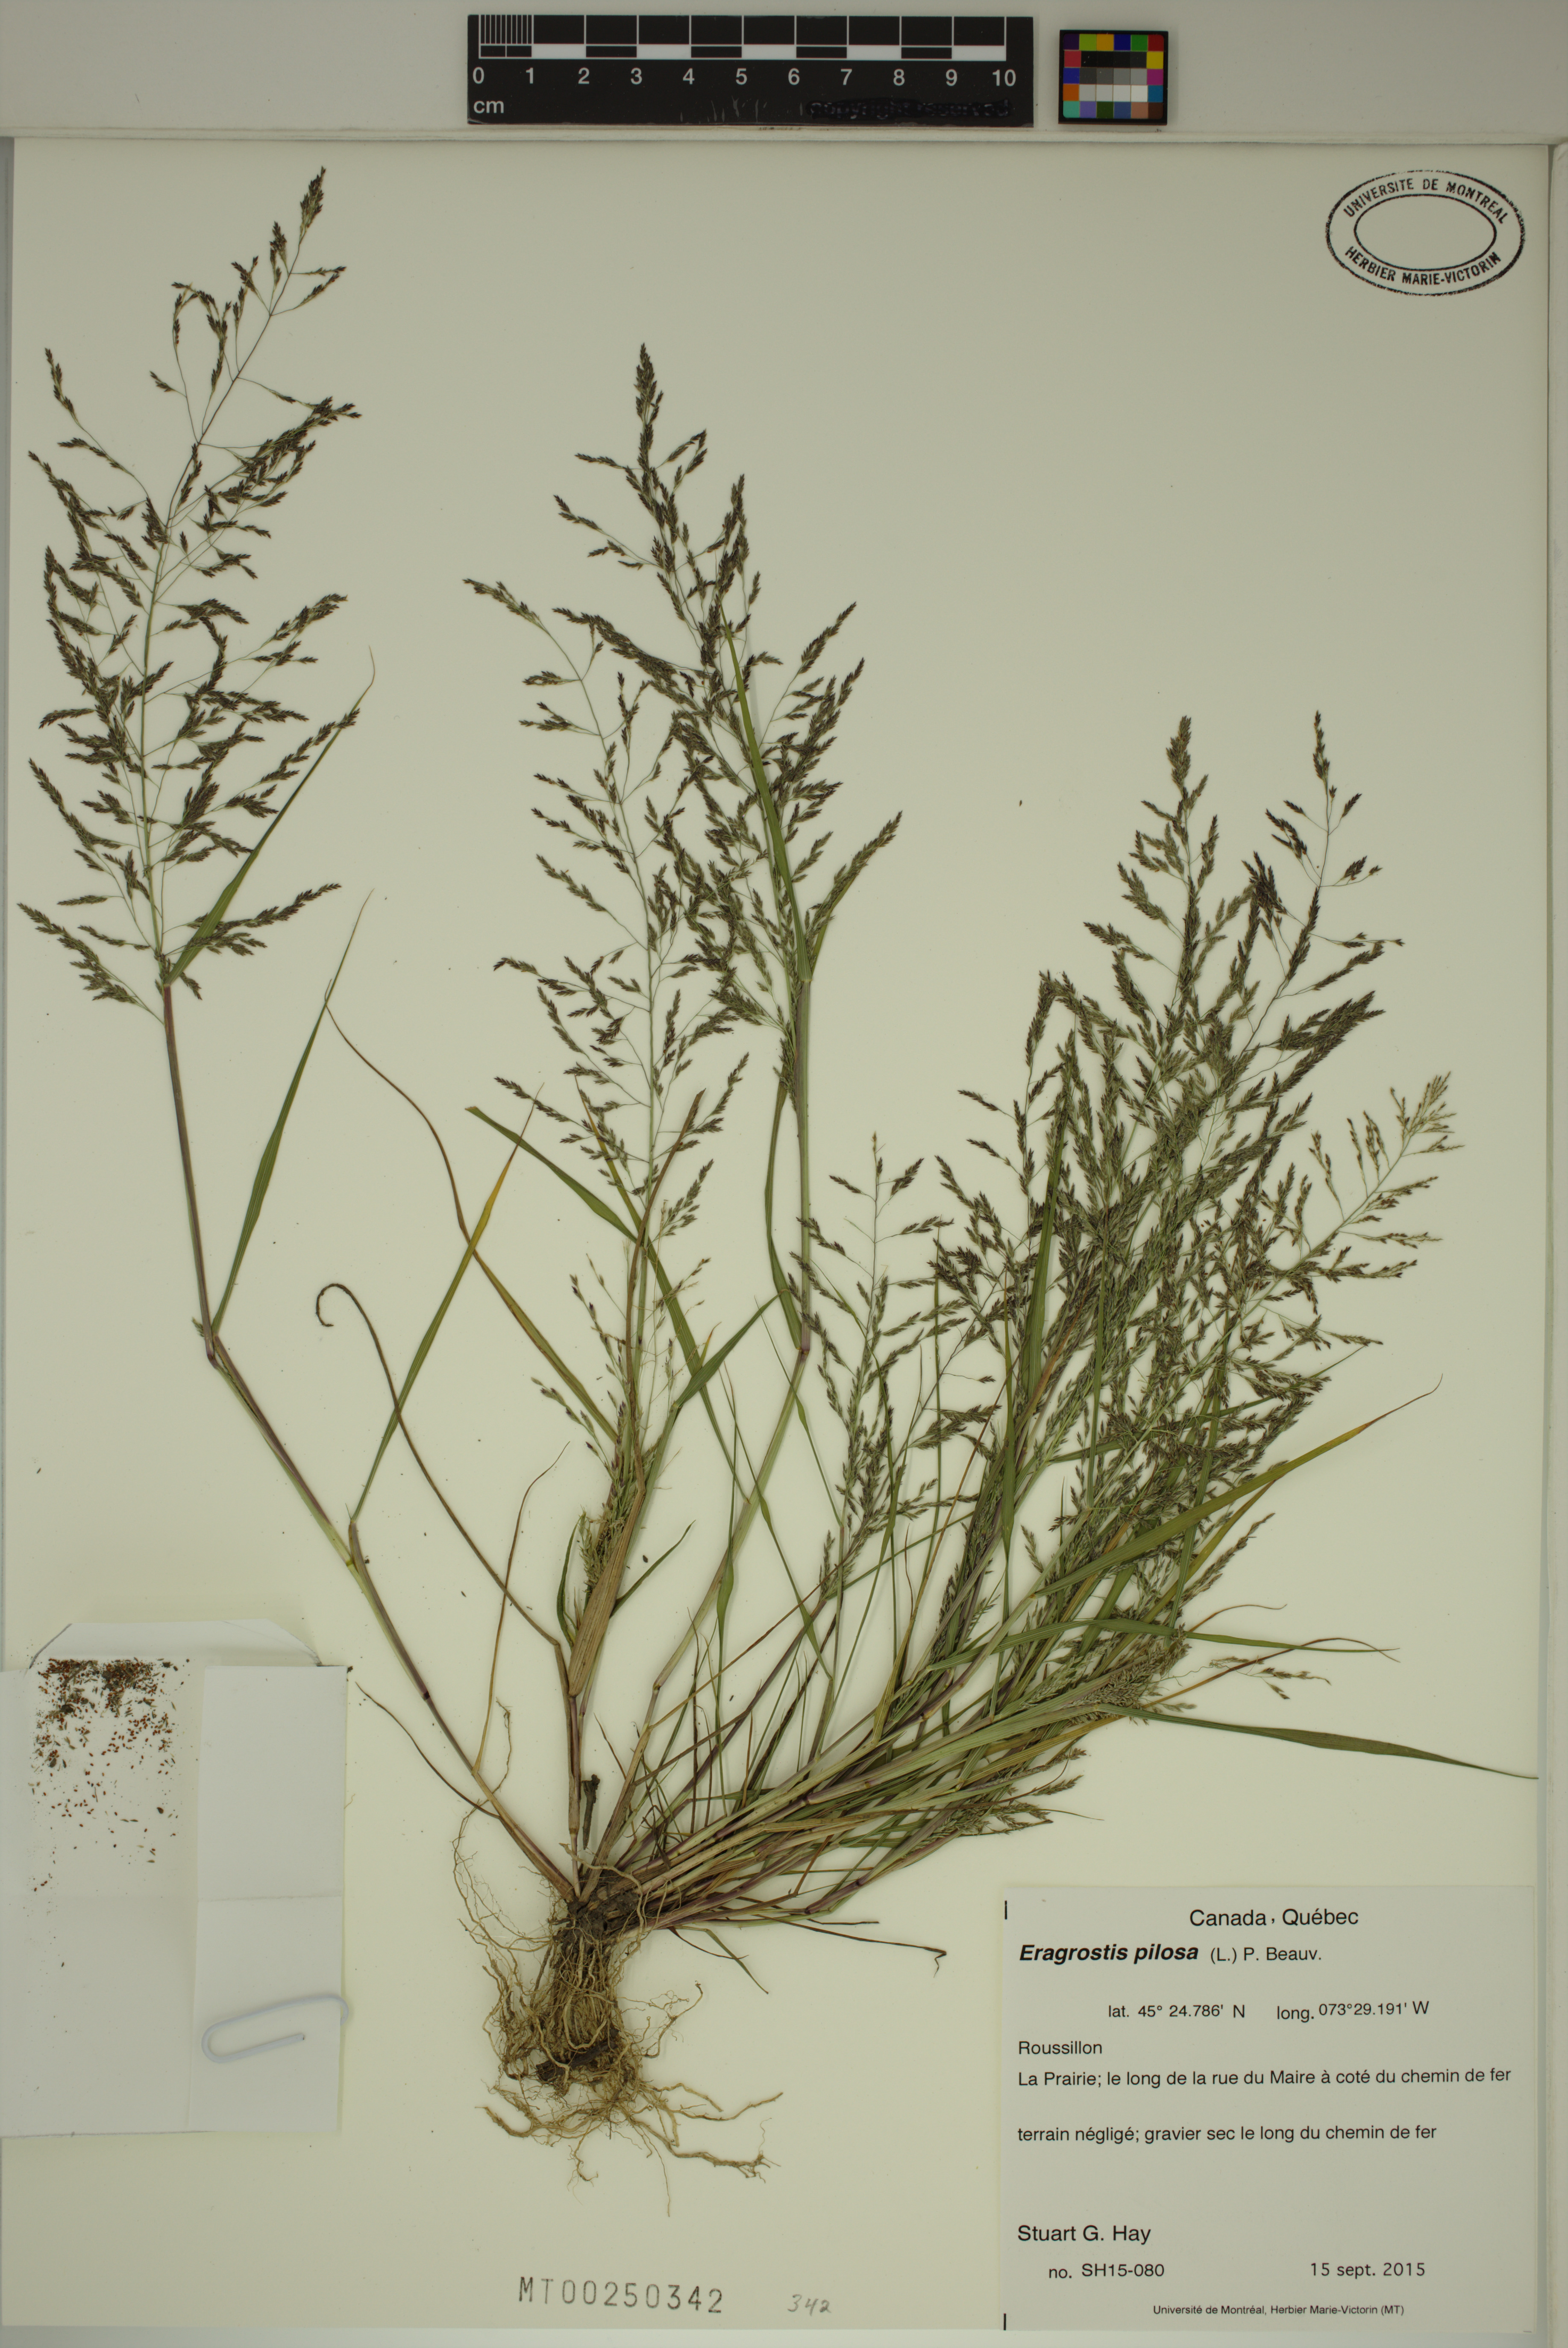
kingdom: Plantae
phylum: Tracheophyta
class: Liliopsida
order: Poales
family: Poaceae
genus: Eragrostis
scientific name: Eragrostis pilosa
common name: Indian lovegrass
